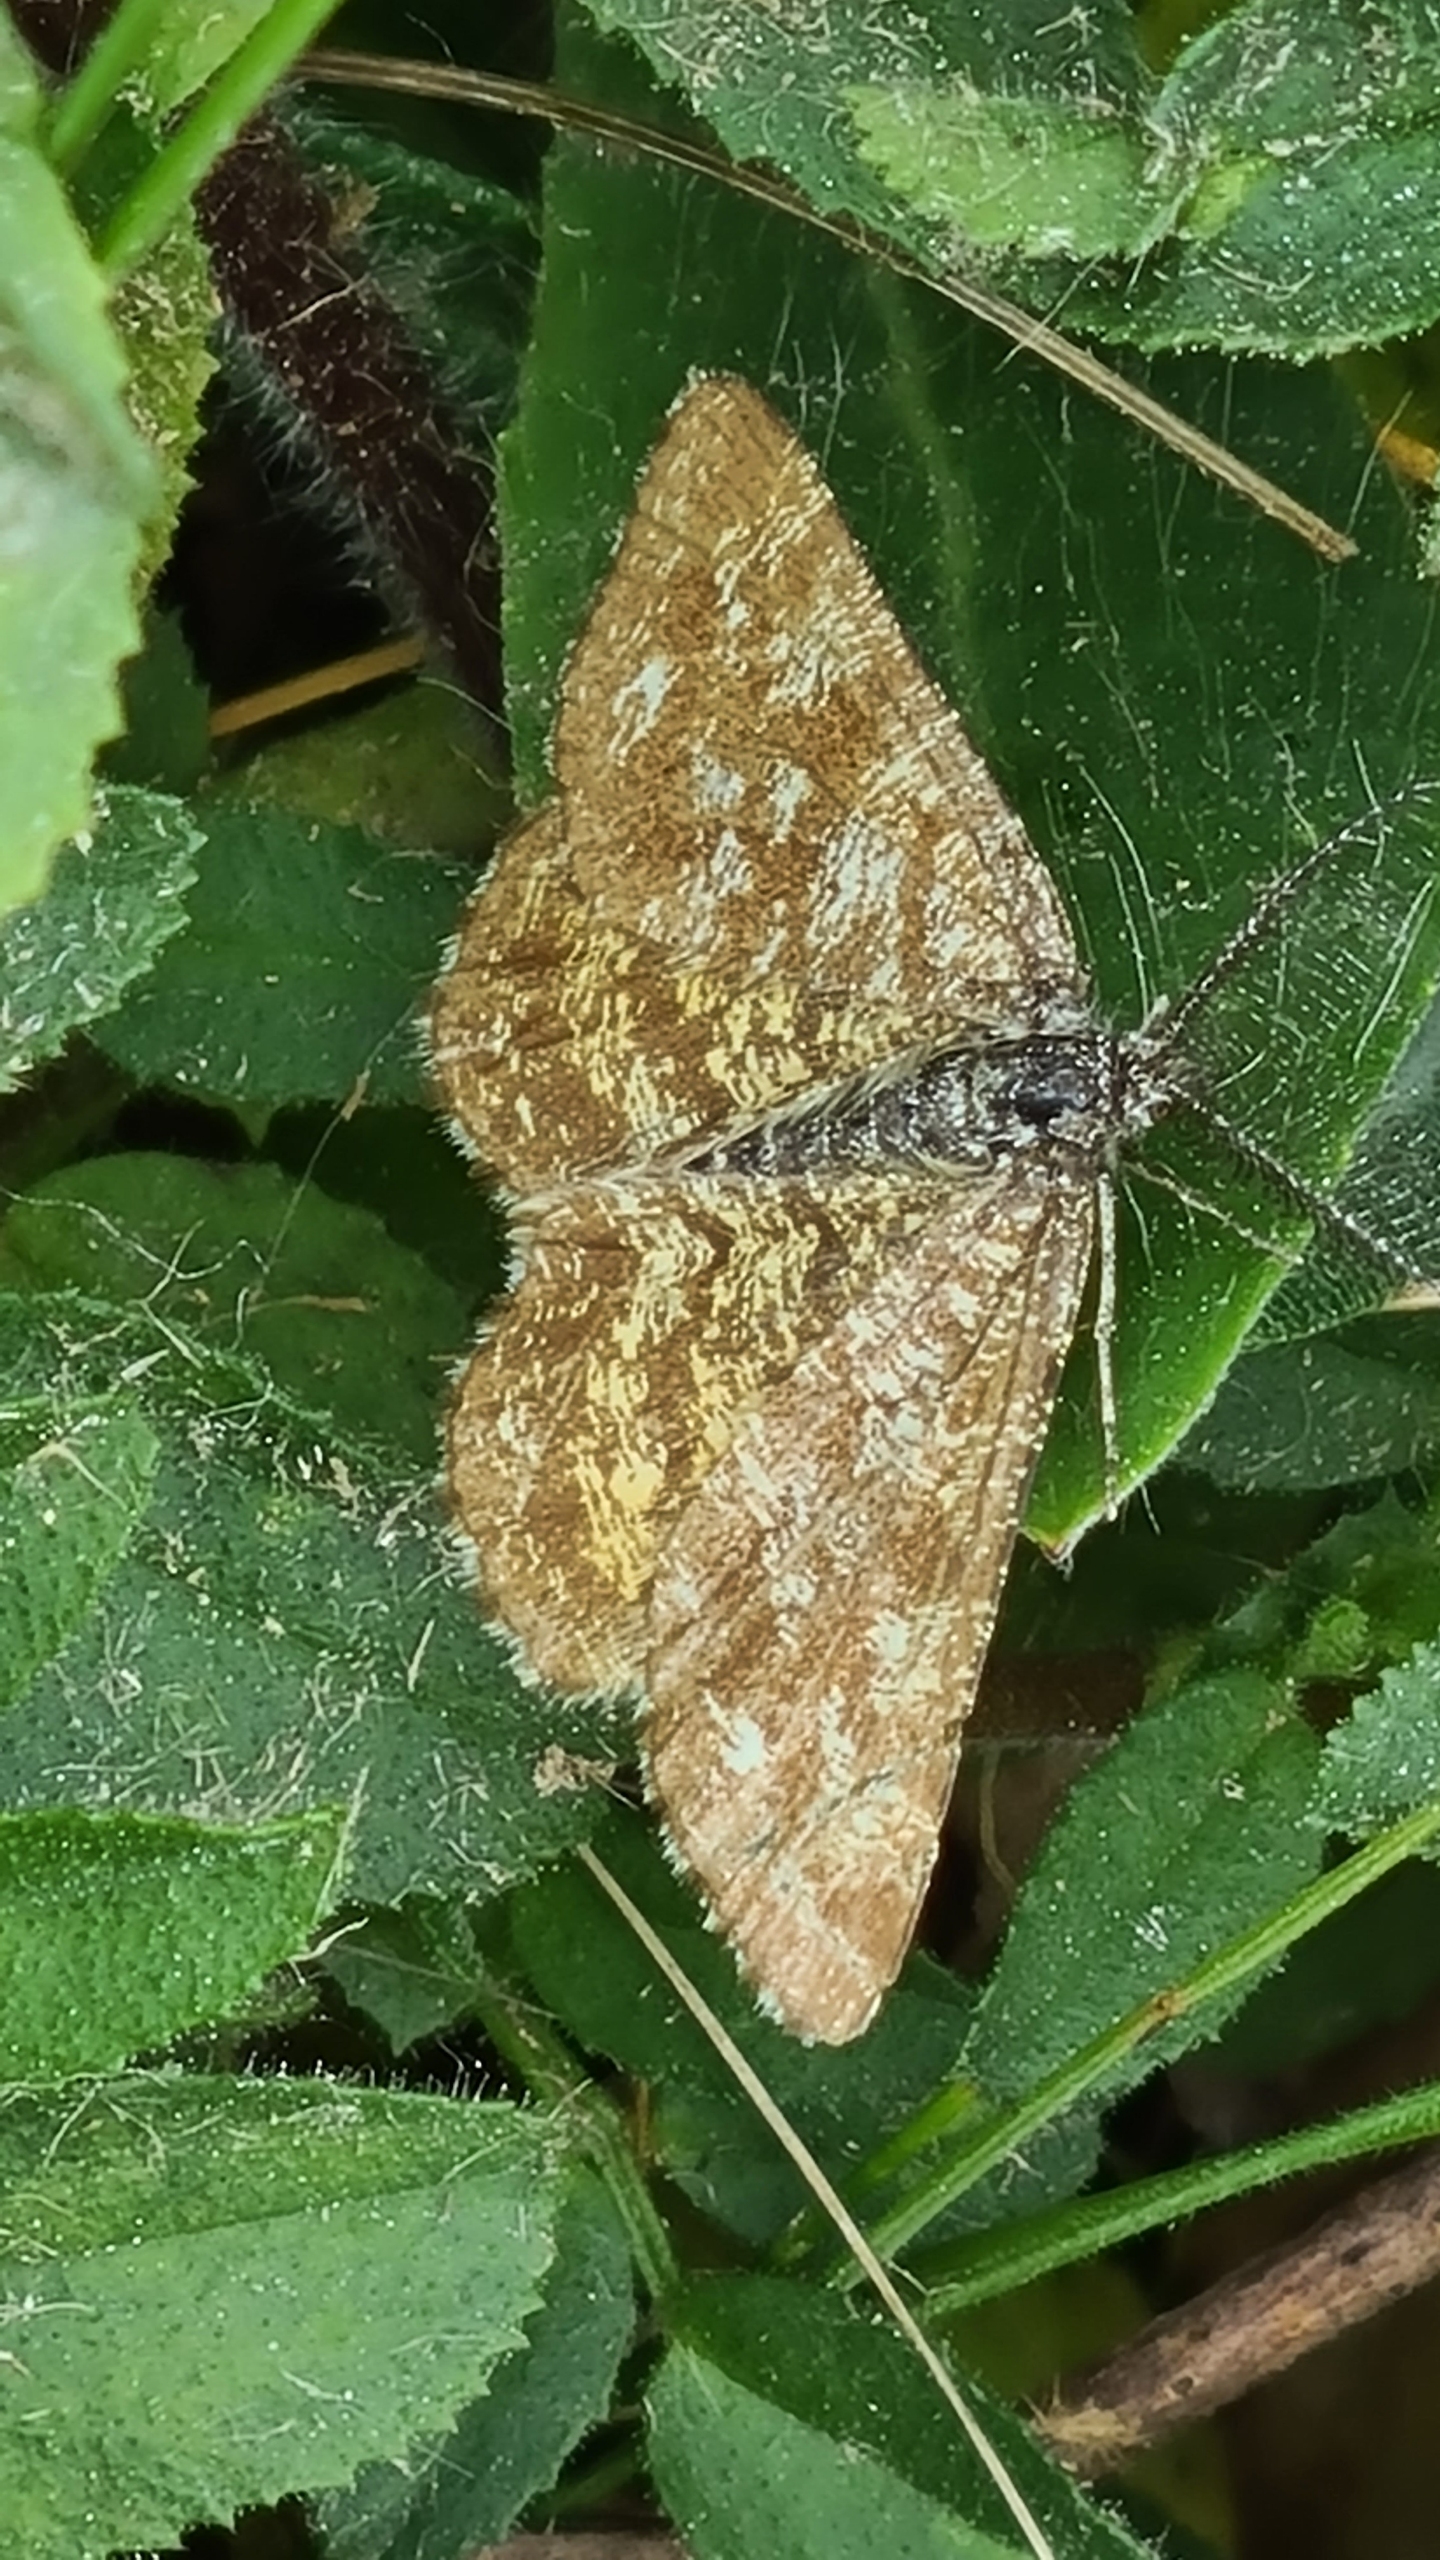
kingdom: Animalia
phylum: Arthropoda
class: Insecta
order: Lepidoptera
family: Geometridae
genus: Ematurga
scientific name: Ematurga atomaria
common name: Lyngmåler
